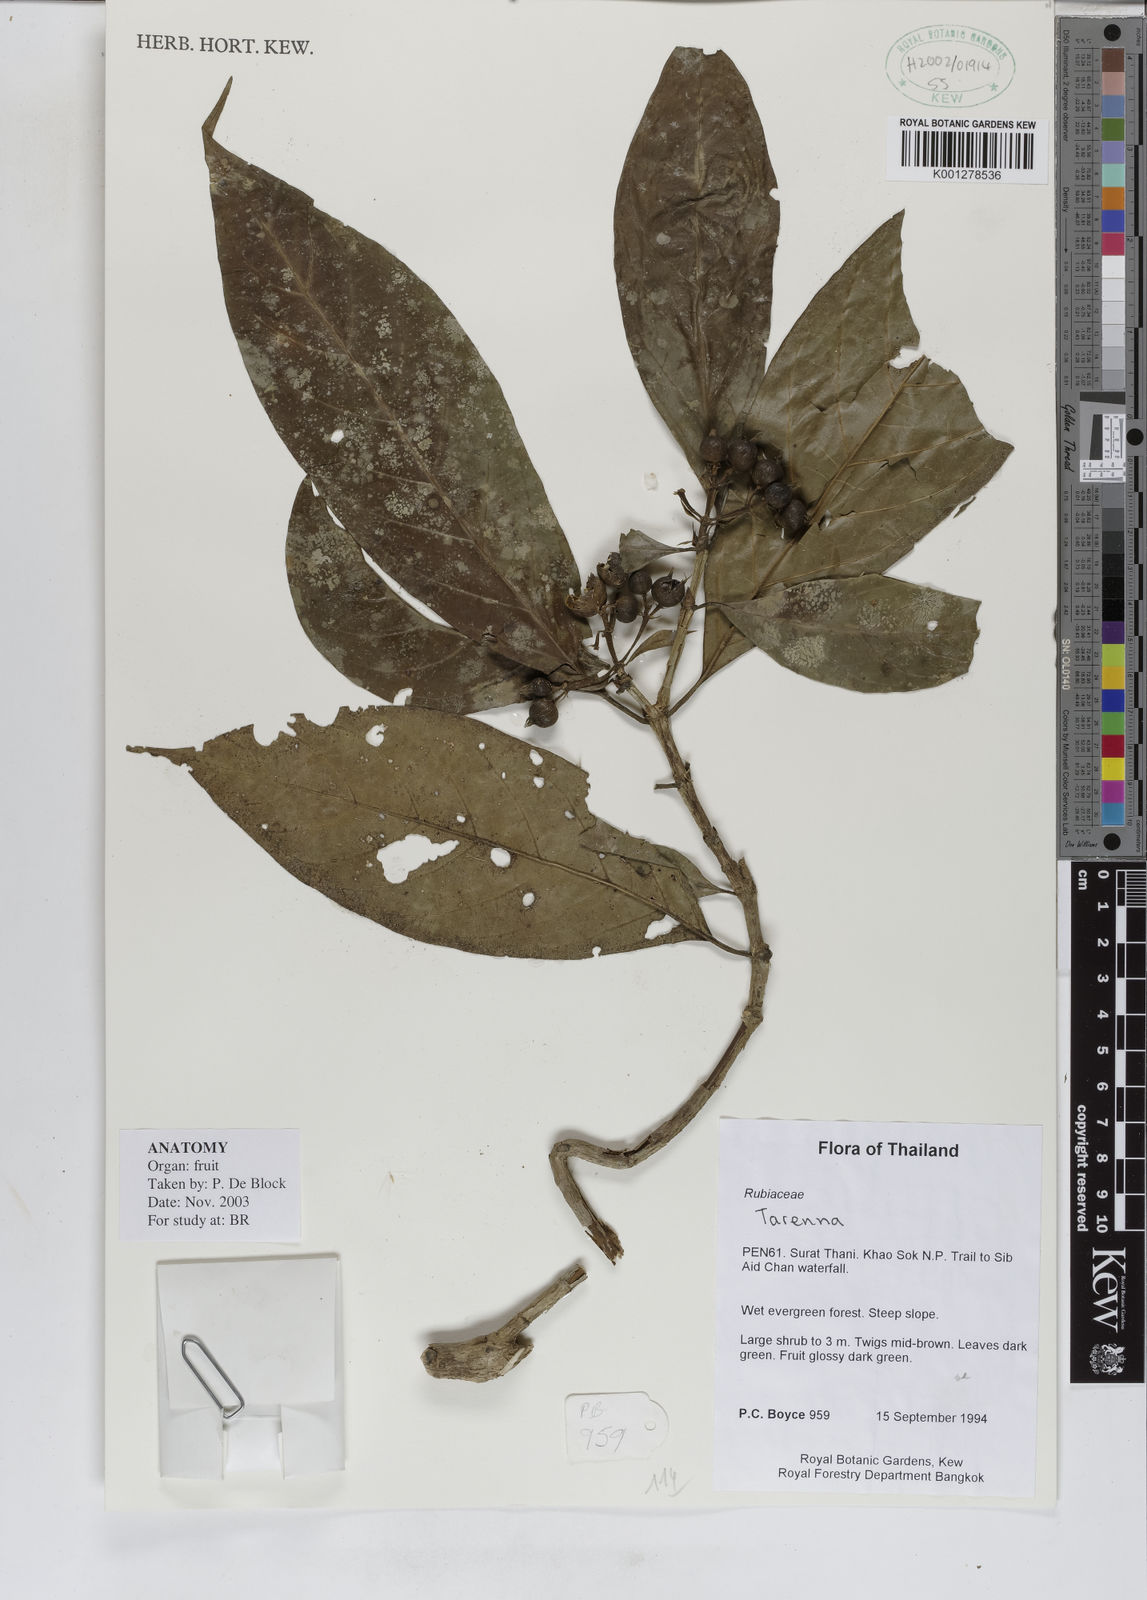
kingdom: Plantae
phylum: Tracheophyta
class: Magnoliopsida
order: Gentianales
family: Rubiaceae
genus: Tarenna
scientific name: Tarenna
